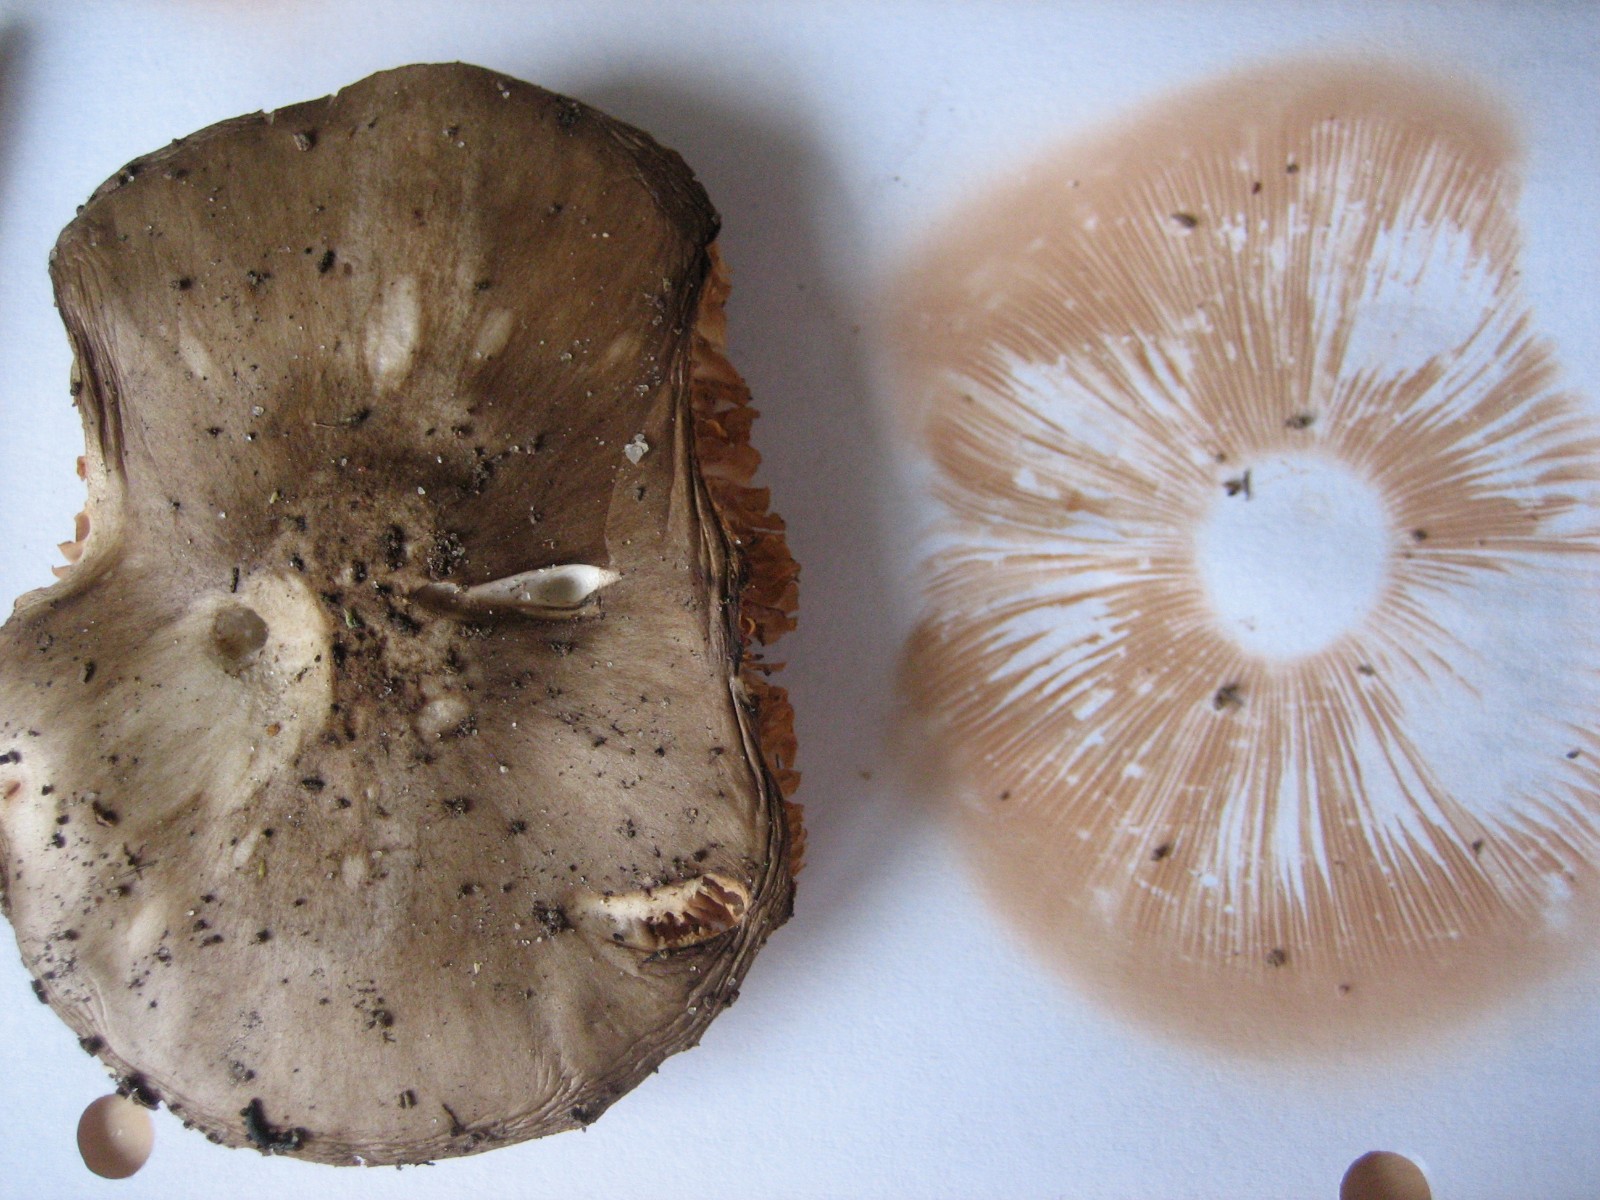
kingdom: Fungi
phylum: Basidiomycota
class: Agaricomycetes
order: Agaricales
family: Pluteaceae
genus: Pluteus
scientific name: Pluteus cervinus
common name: sodfarvet skærmhat
